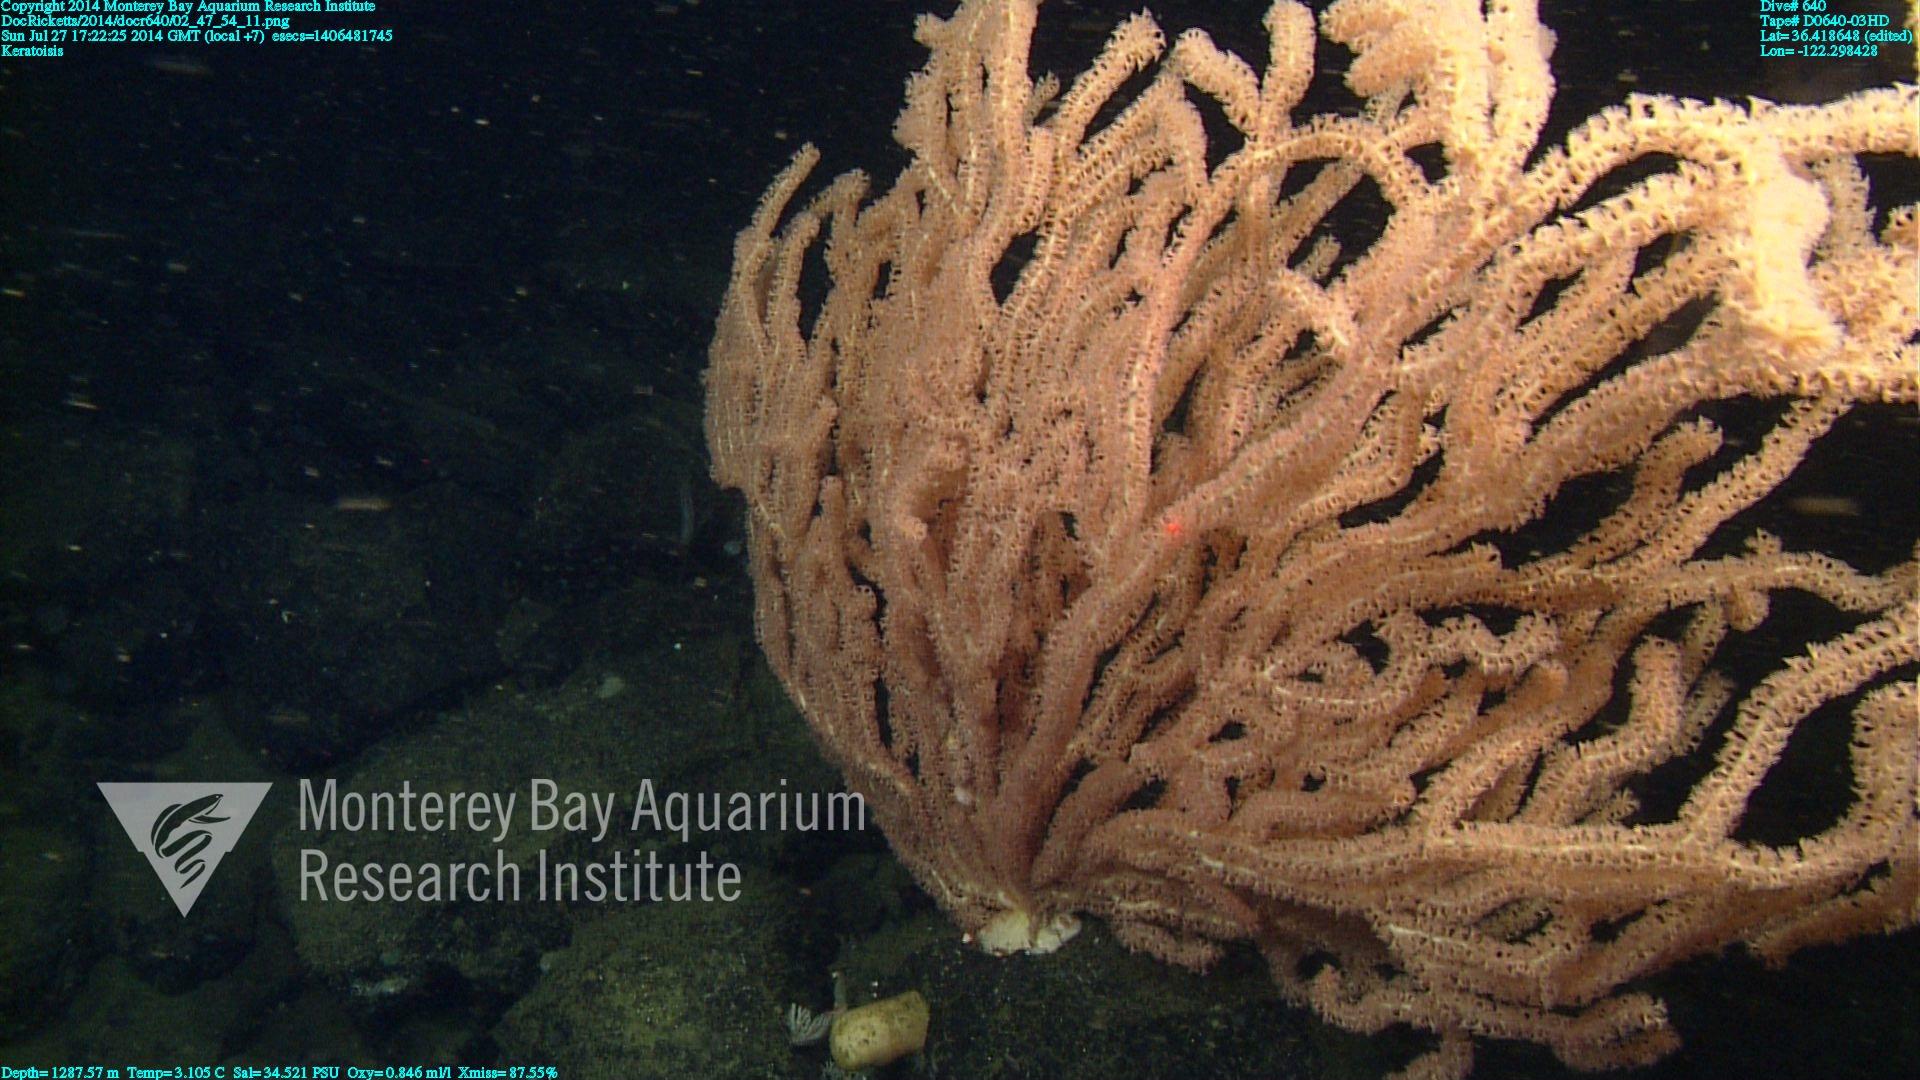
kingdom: Animalia
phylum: Cnidaria
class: Anthozoa
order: Scleralcyonacea
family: Keratoisididae
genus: Keratoisis
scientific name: Keratoisis
